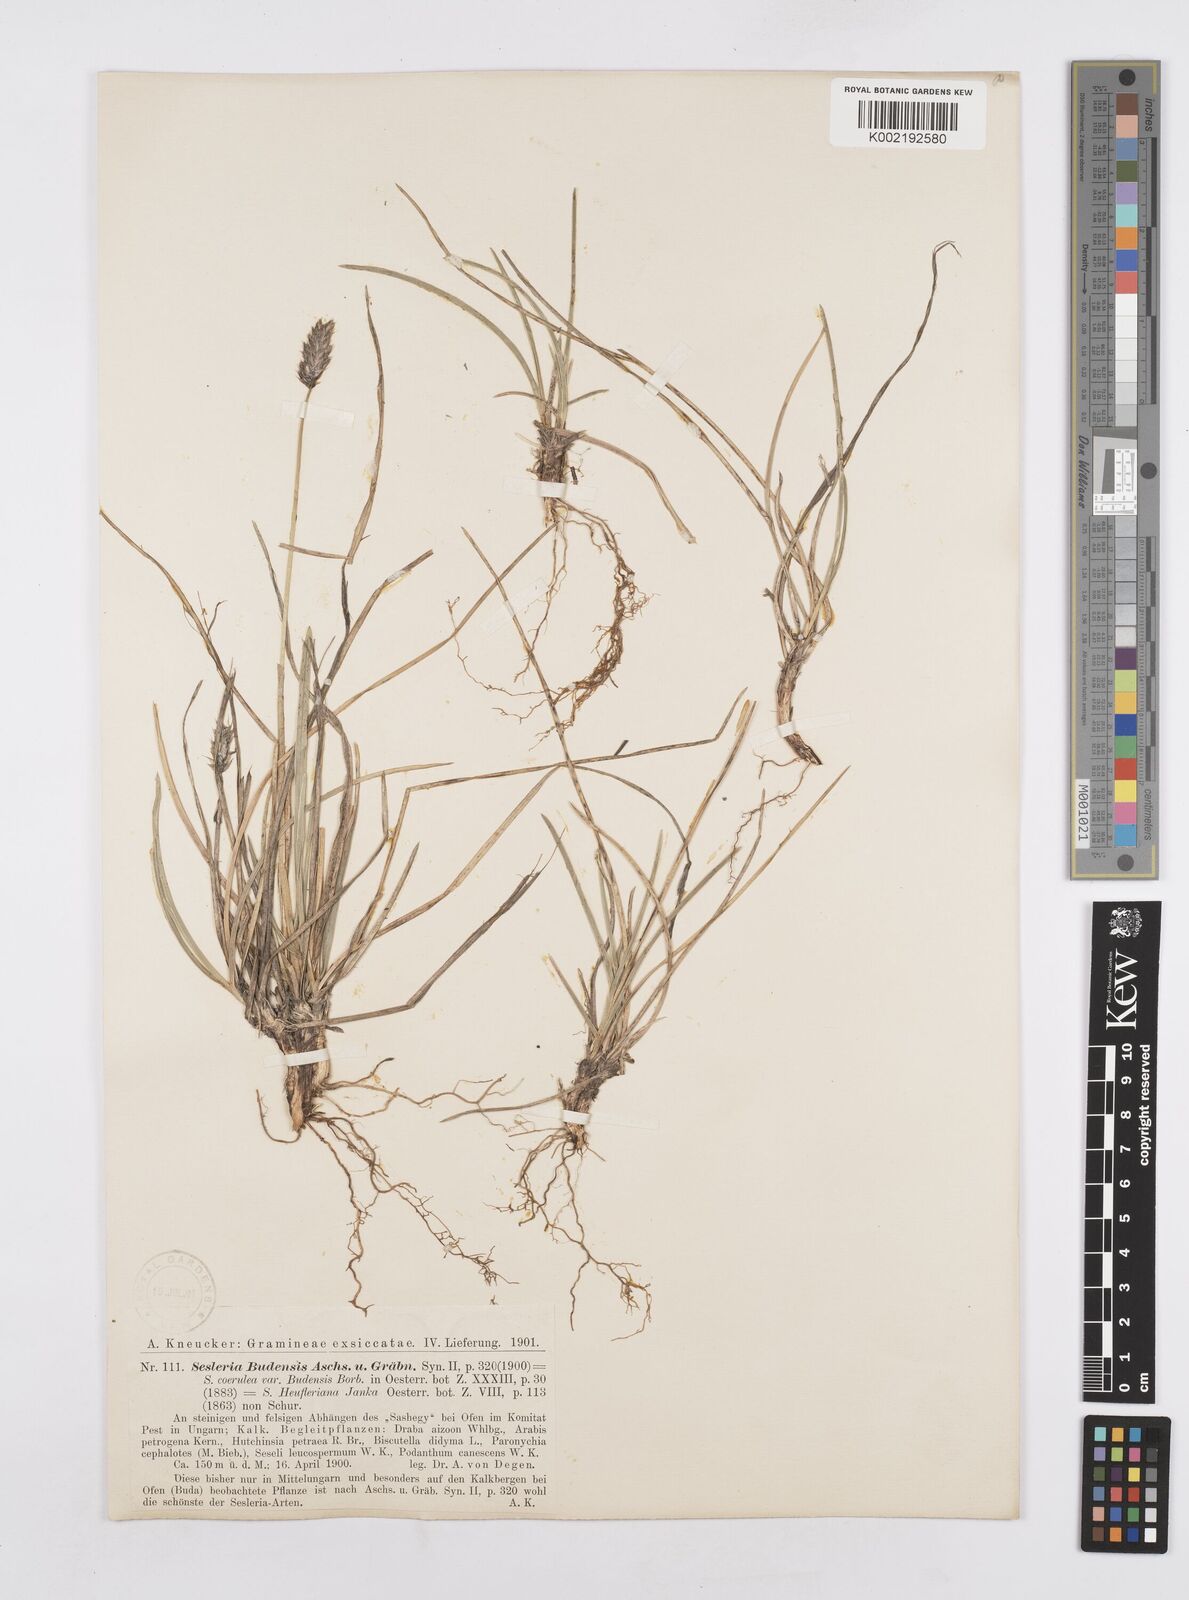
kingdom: Plantae
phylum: Tracheophyta
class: Liliopsida
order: Poales
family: Poaceae
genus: Sesleria
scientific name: Sesleria sadleriana
